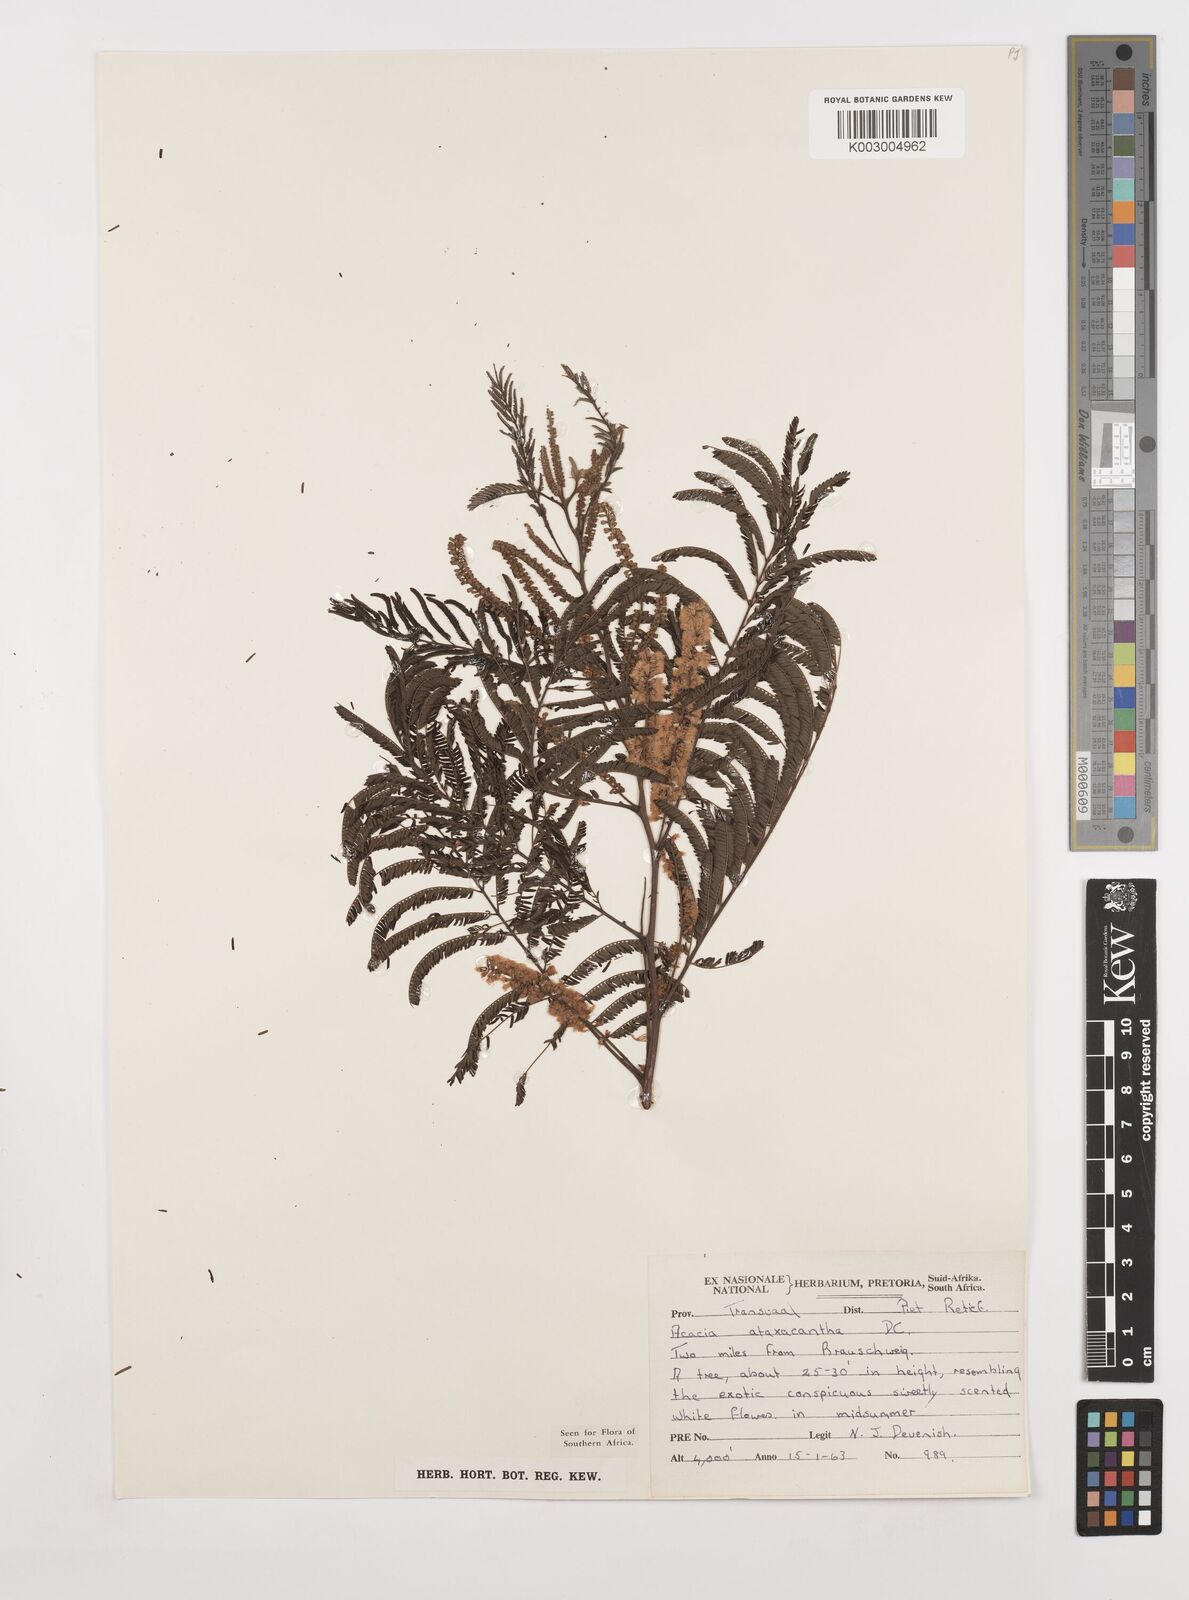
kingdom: Plantae
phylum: Tracheophyta
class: Magnoliopsida
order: Fabales
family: Fabaceae
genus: Senegalia
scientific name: Senegalia ataxacantha
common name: Flame acacia
